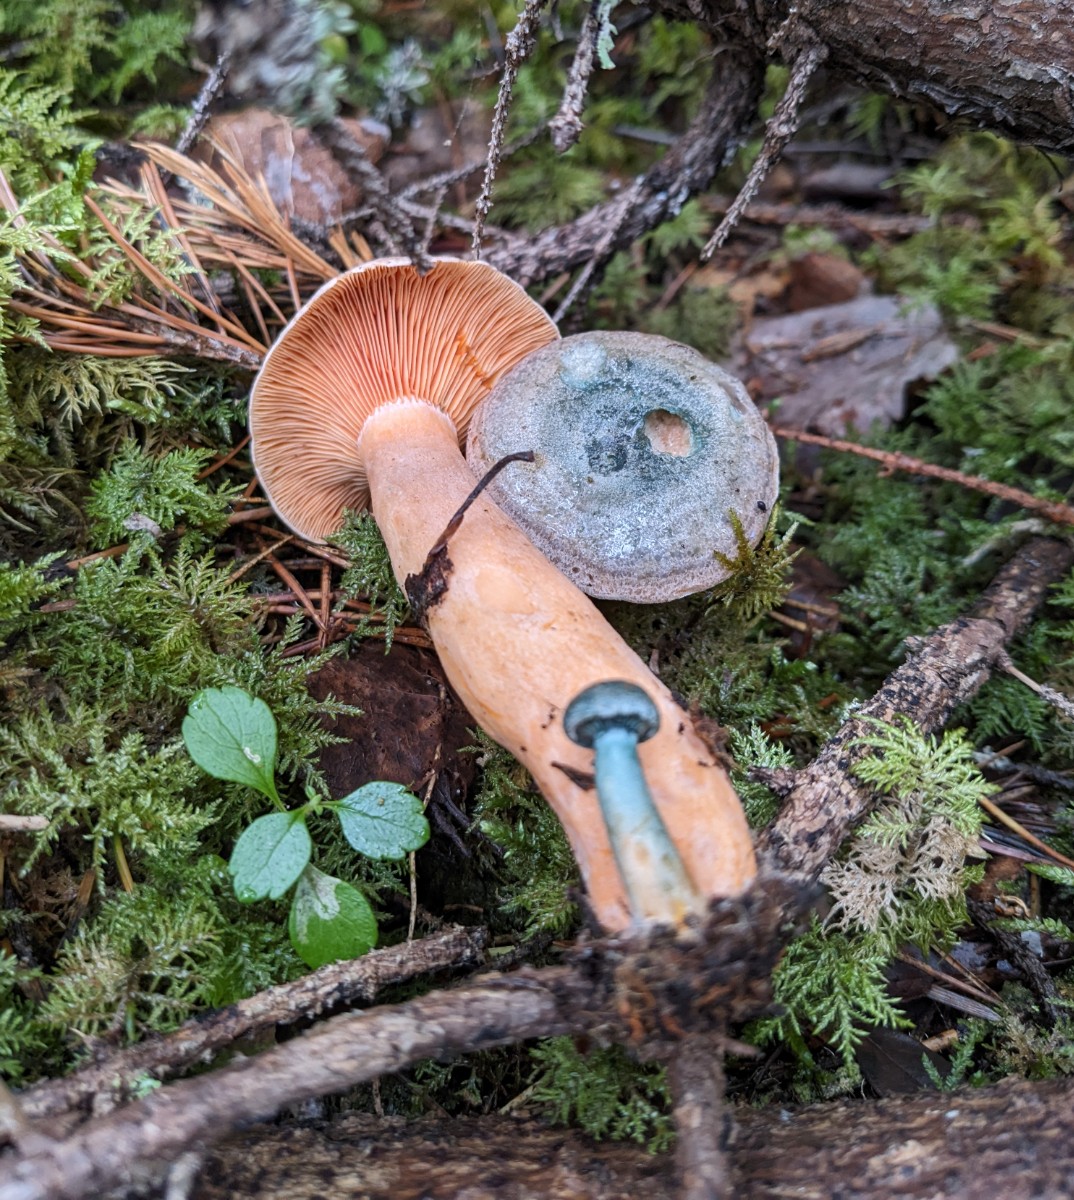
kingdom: Fungi
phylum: Basidiomycota
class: Agaricomycetes
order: Russulales
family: Russulaceae
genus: Lactarius
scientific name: Lactarius fennoscandicus
